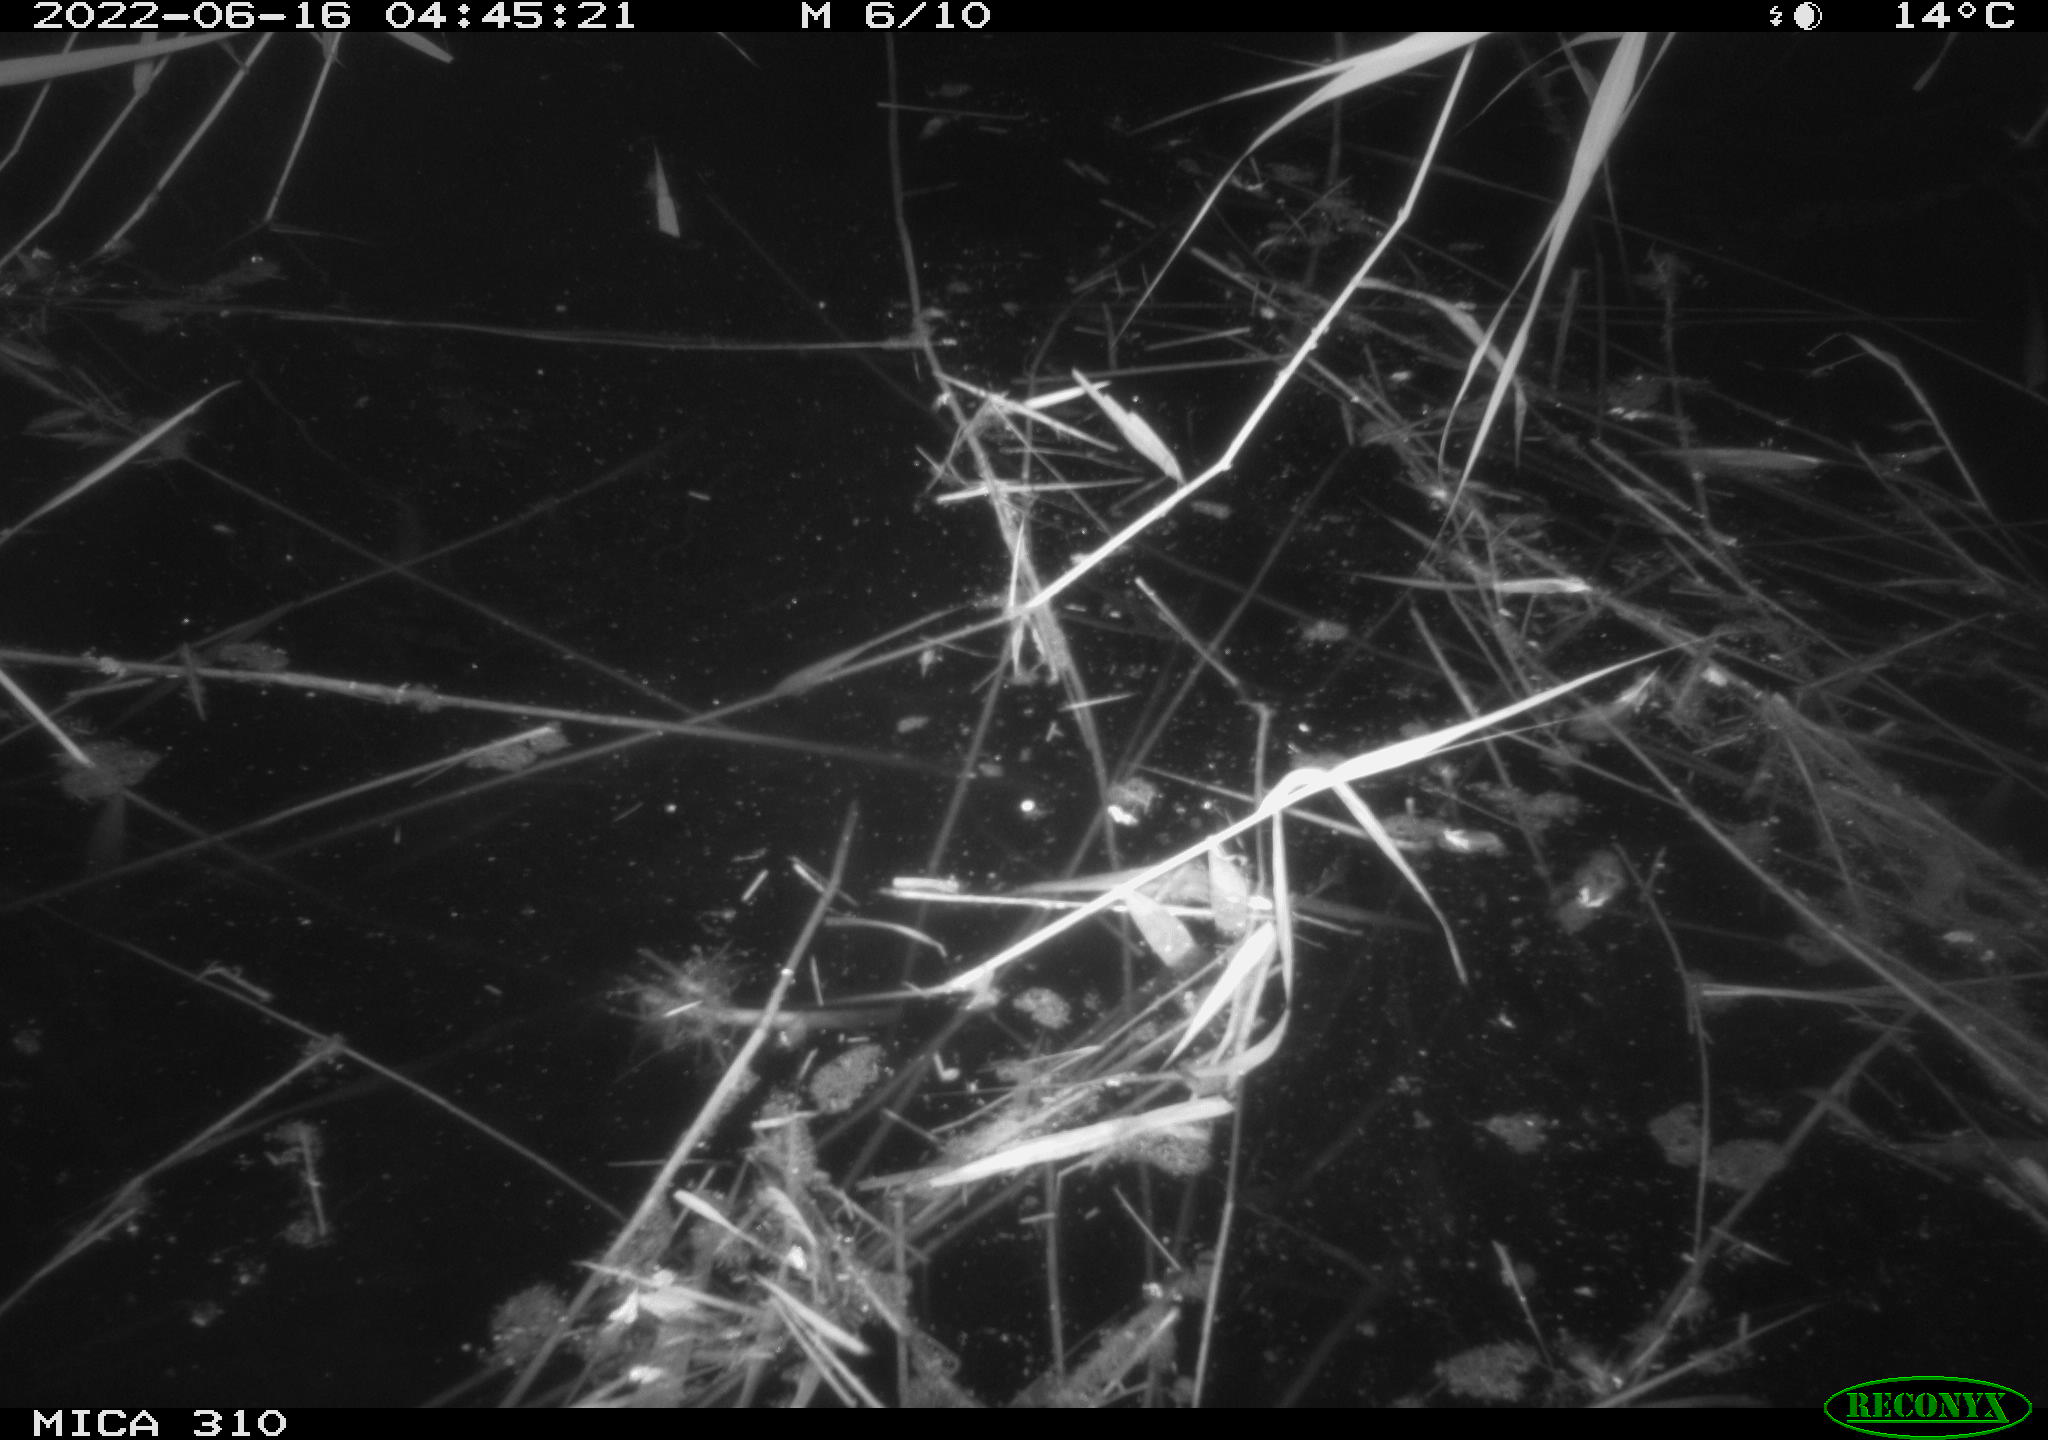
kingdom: Animalia
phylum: Chordata
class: Aves
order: Gruiformes
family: Rallidae
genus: Gallinula
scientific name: Gallinula chloropus
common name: Common moorhen
